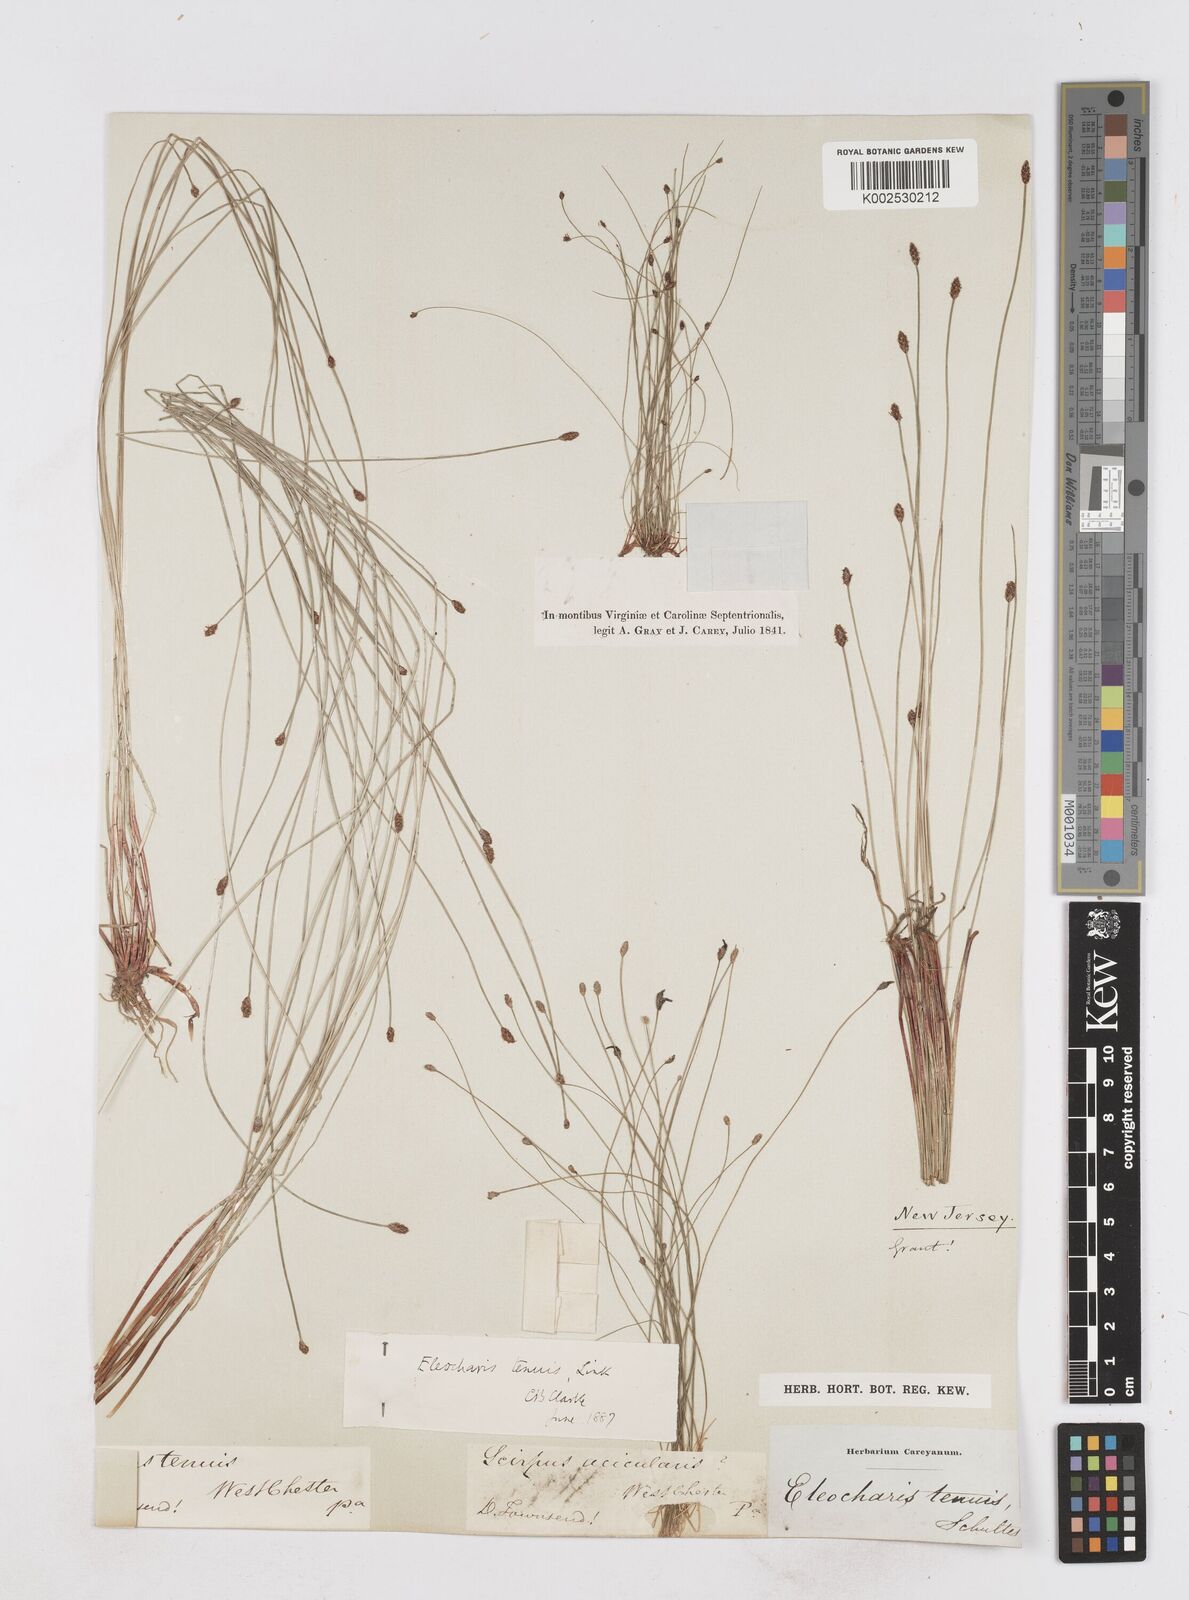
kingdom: Plantae
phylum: Tracheophyta
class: Liliopsida
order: Poales
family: Cyperaceae
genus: Eleocharis
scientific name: Eleocharis tenuis
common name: Dog's hair
